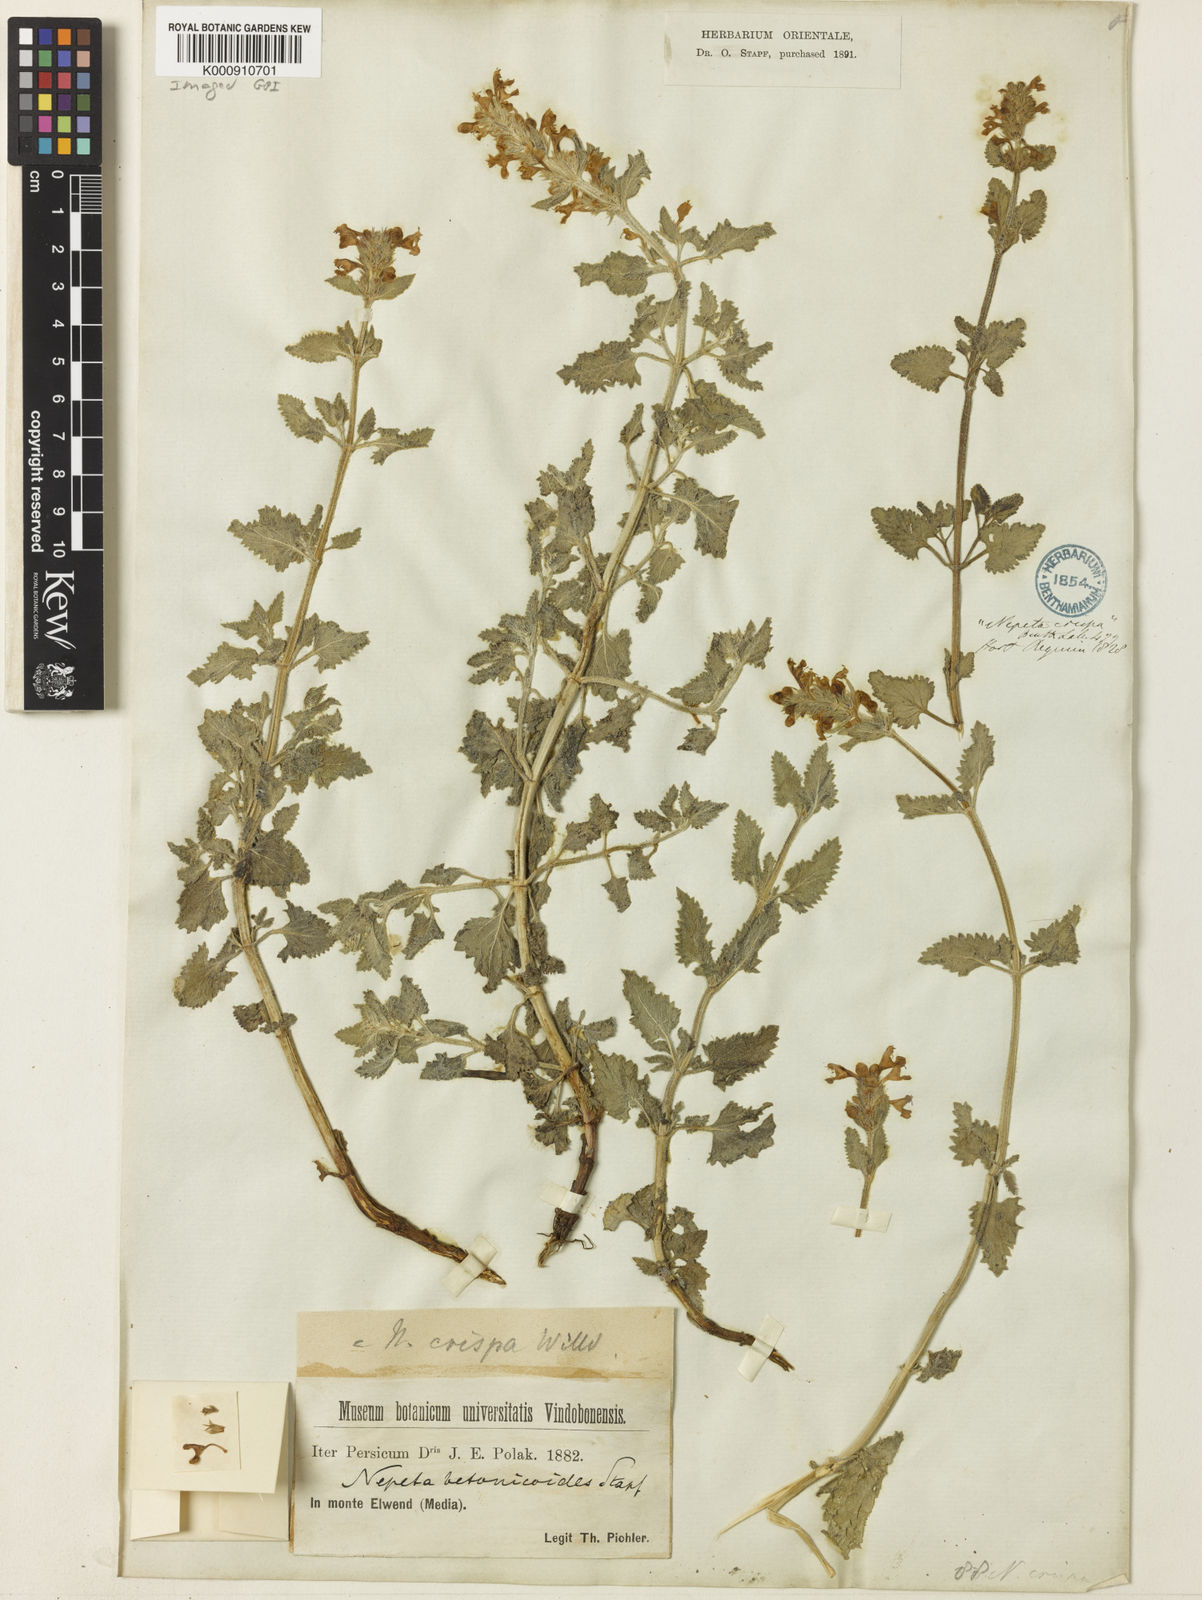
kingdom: Plantae
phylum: Tracheophyta
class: Magnoliopsida
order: Lamiales
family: Lamiaceae
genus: Nepeta
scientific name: Nepeta crispa
